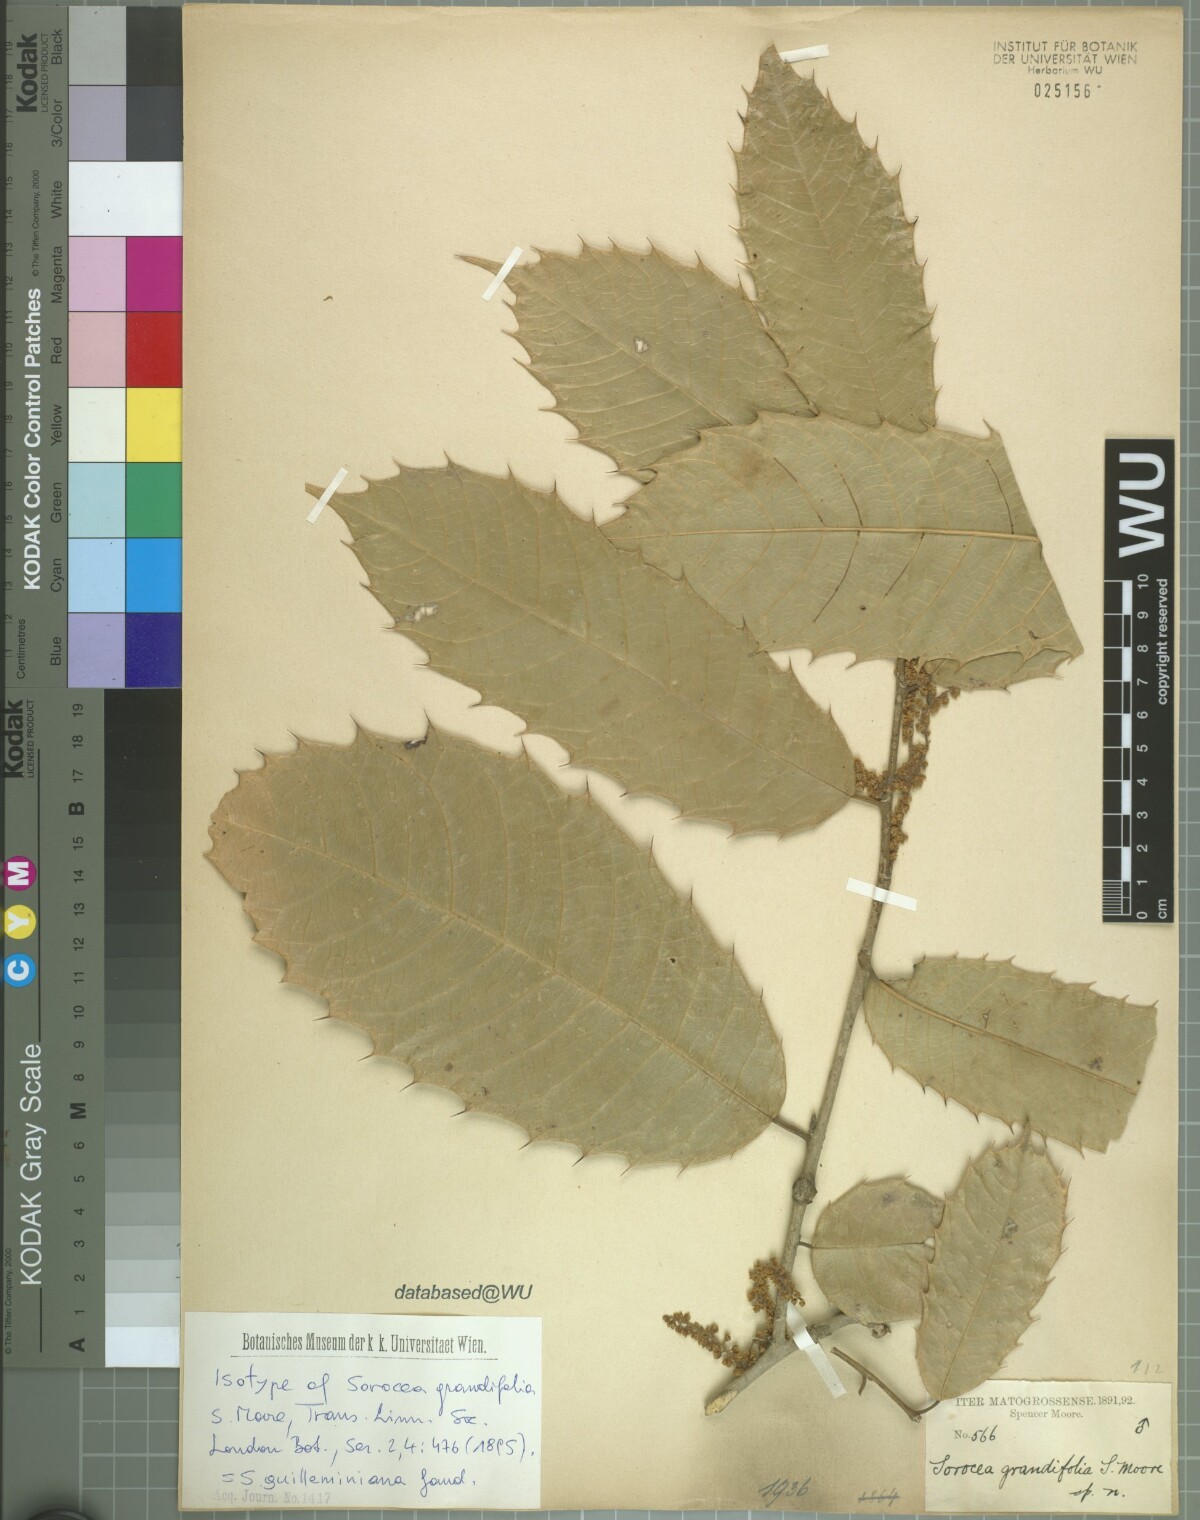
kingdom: Plantae
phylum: Tracheophyta
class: Magnoliopsida
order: Rosales
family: Moraceae
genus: Sorocea
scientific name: Sorocea guilleminiana
